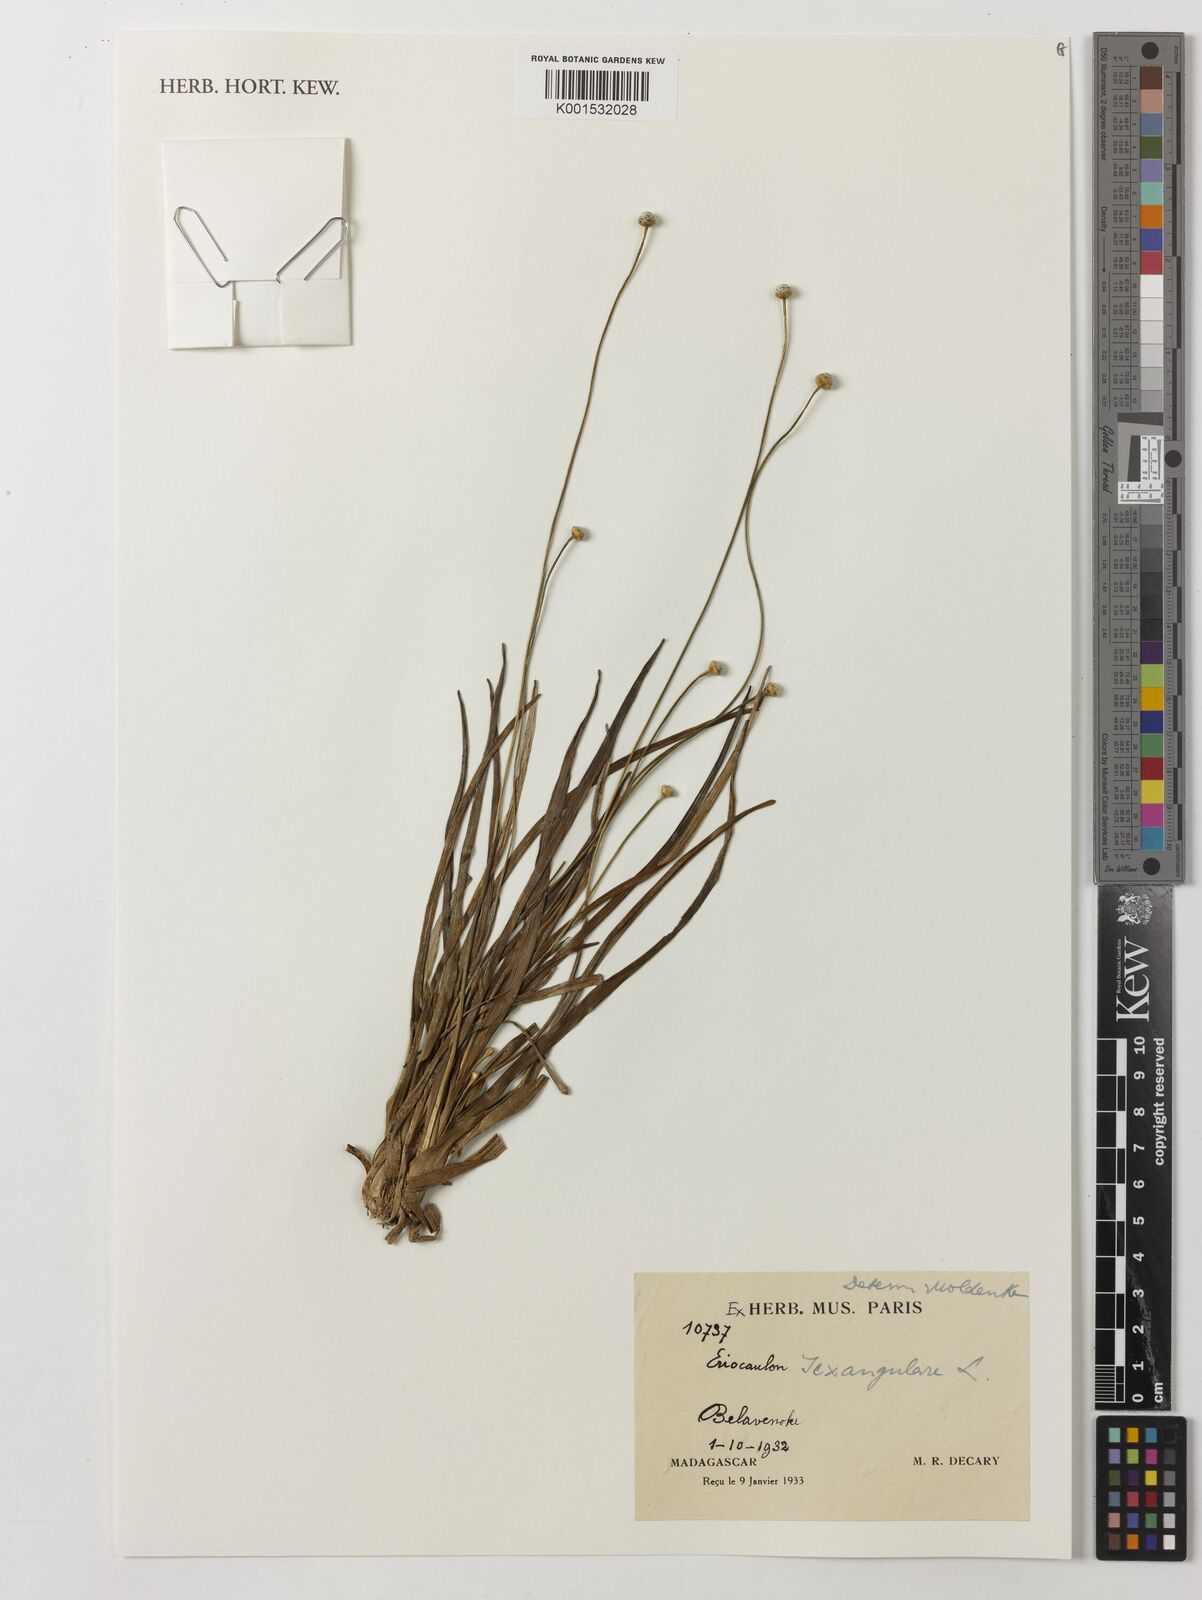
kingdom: Plantae
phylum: Tracheophyta
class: Liliopsida
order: Poales
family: Eriocaulaceae
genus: Eriocaulon
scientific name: Eriocaulon sexangulare
